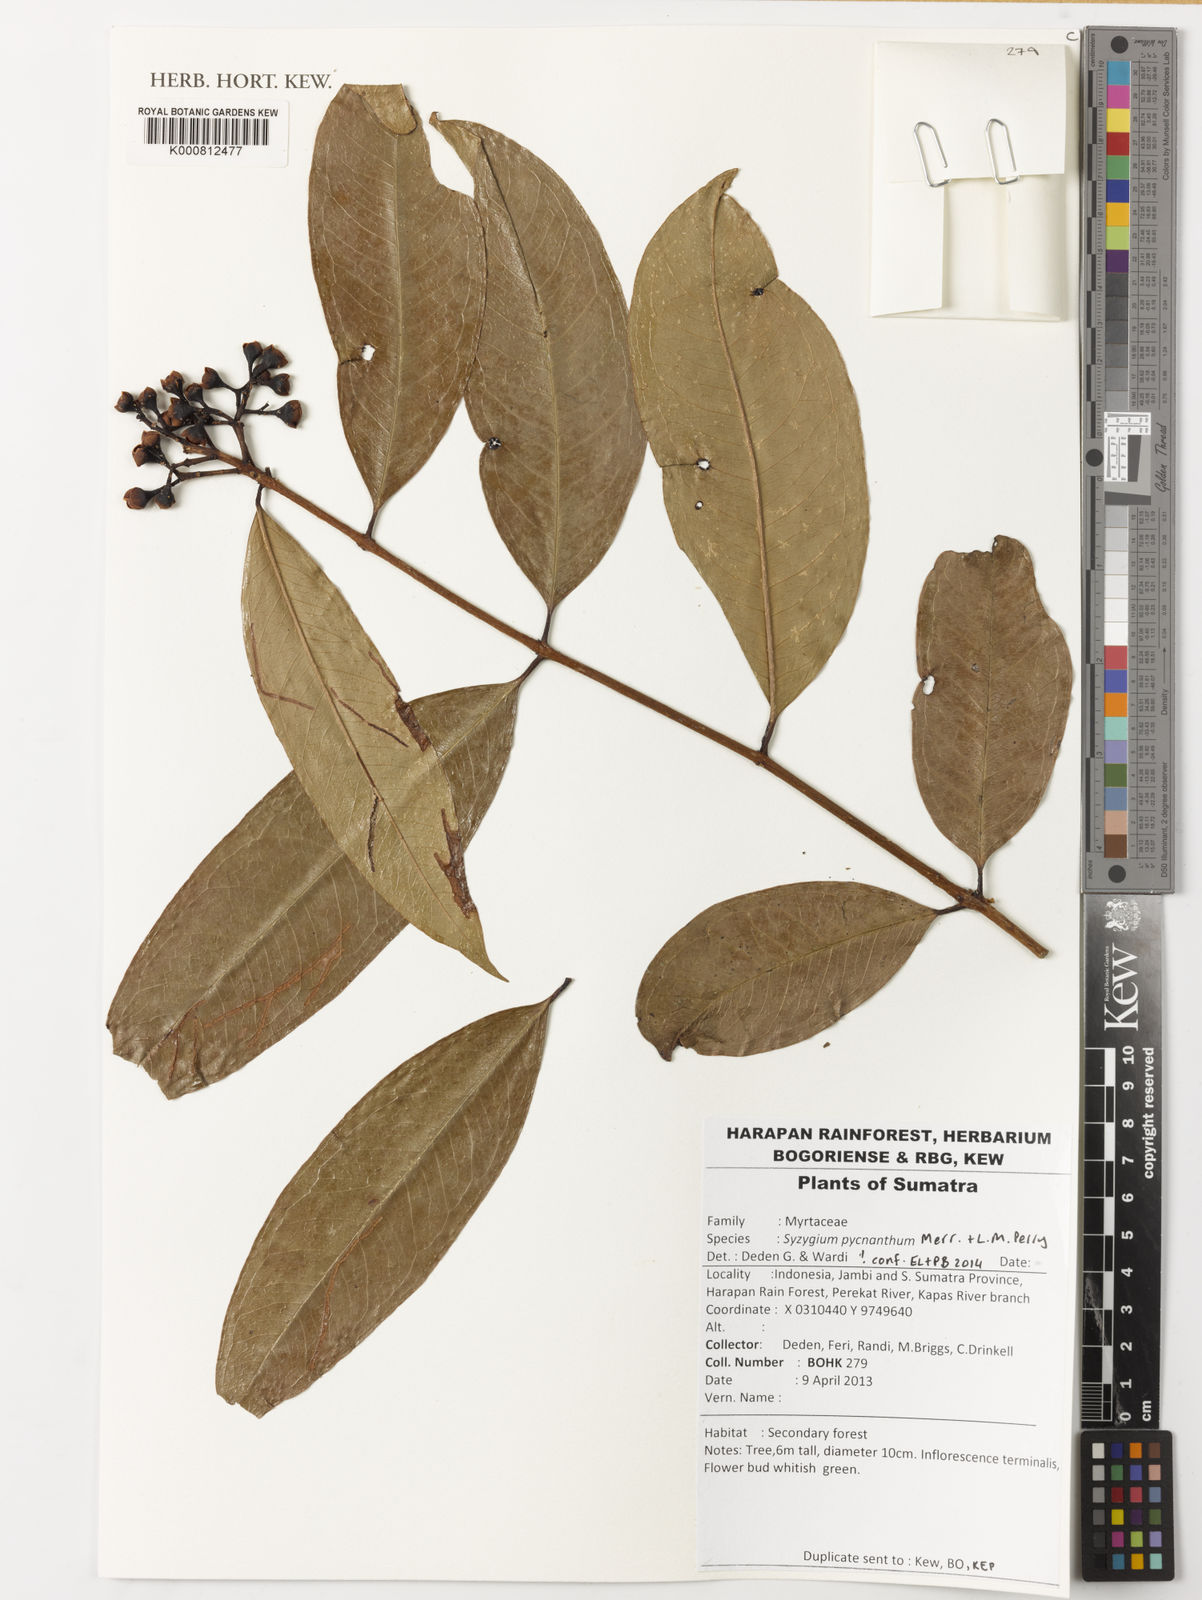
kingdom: Plantae
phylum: Tracheophyta
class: Magnoliopsida
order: Myrtales
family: Myrtaceae
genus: Syzygium
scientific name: Syzygium pycnanthum
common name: Wild rose
